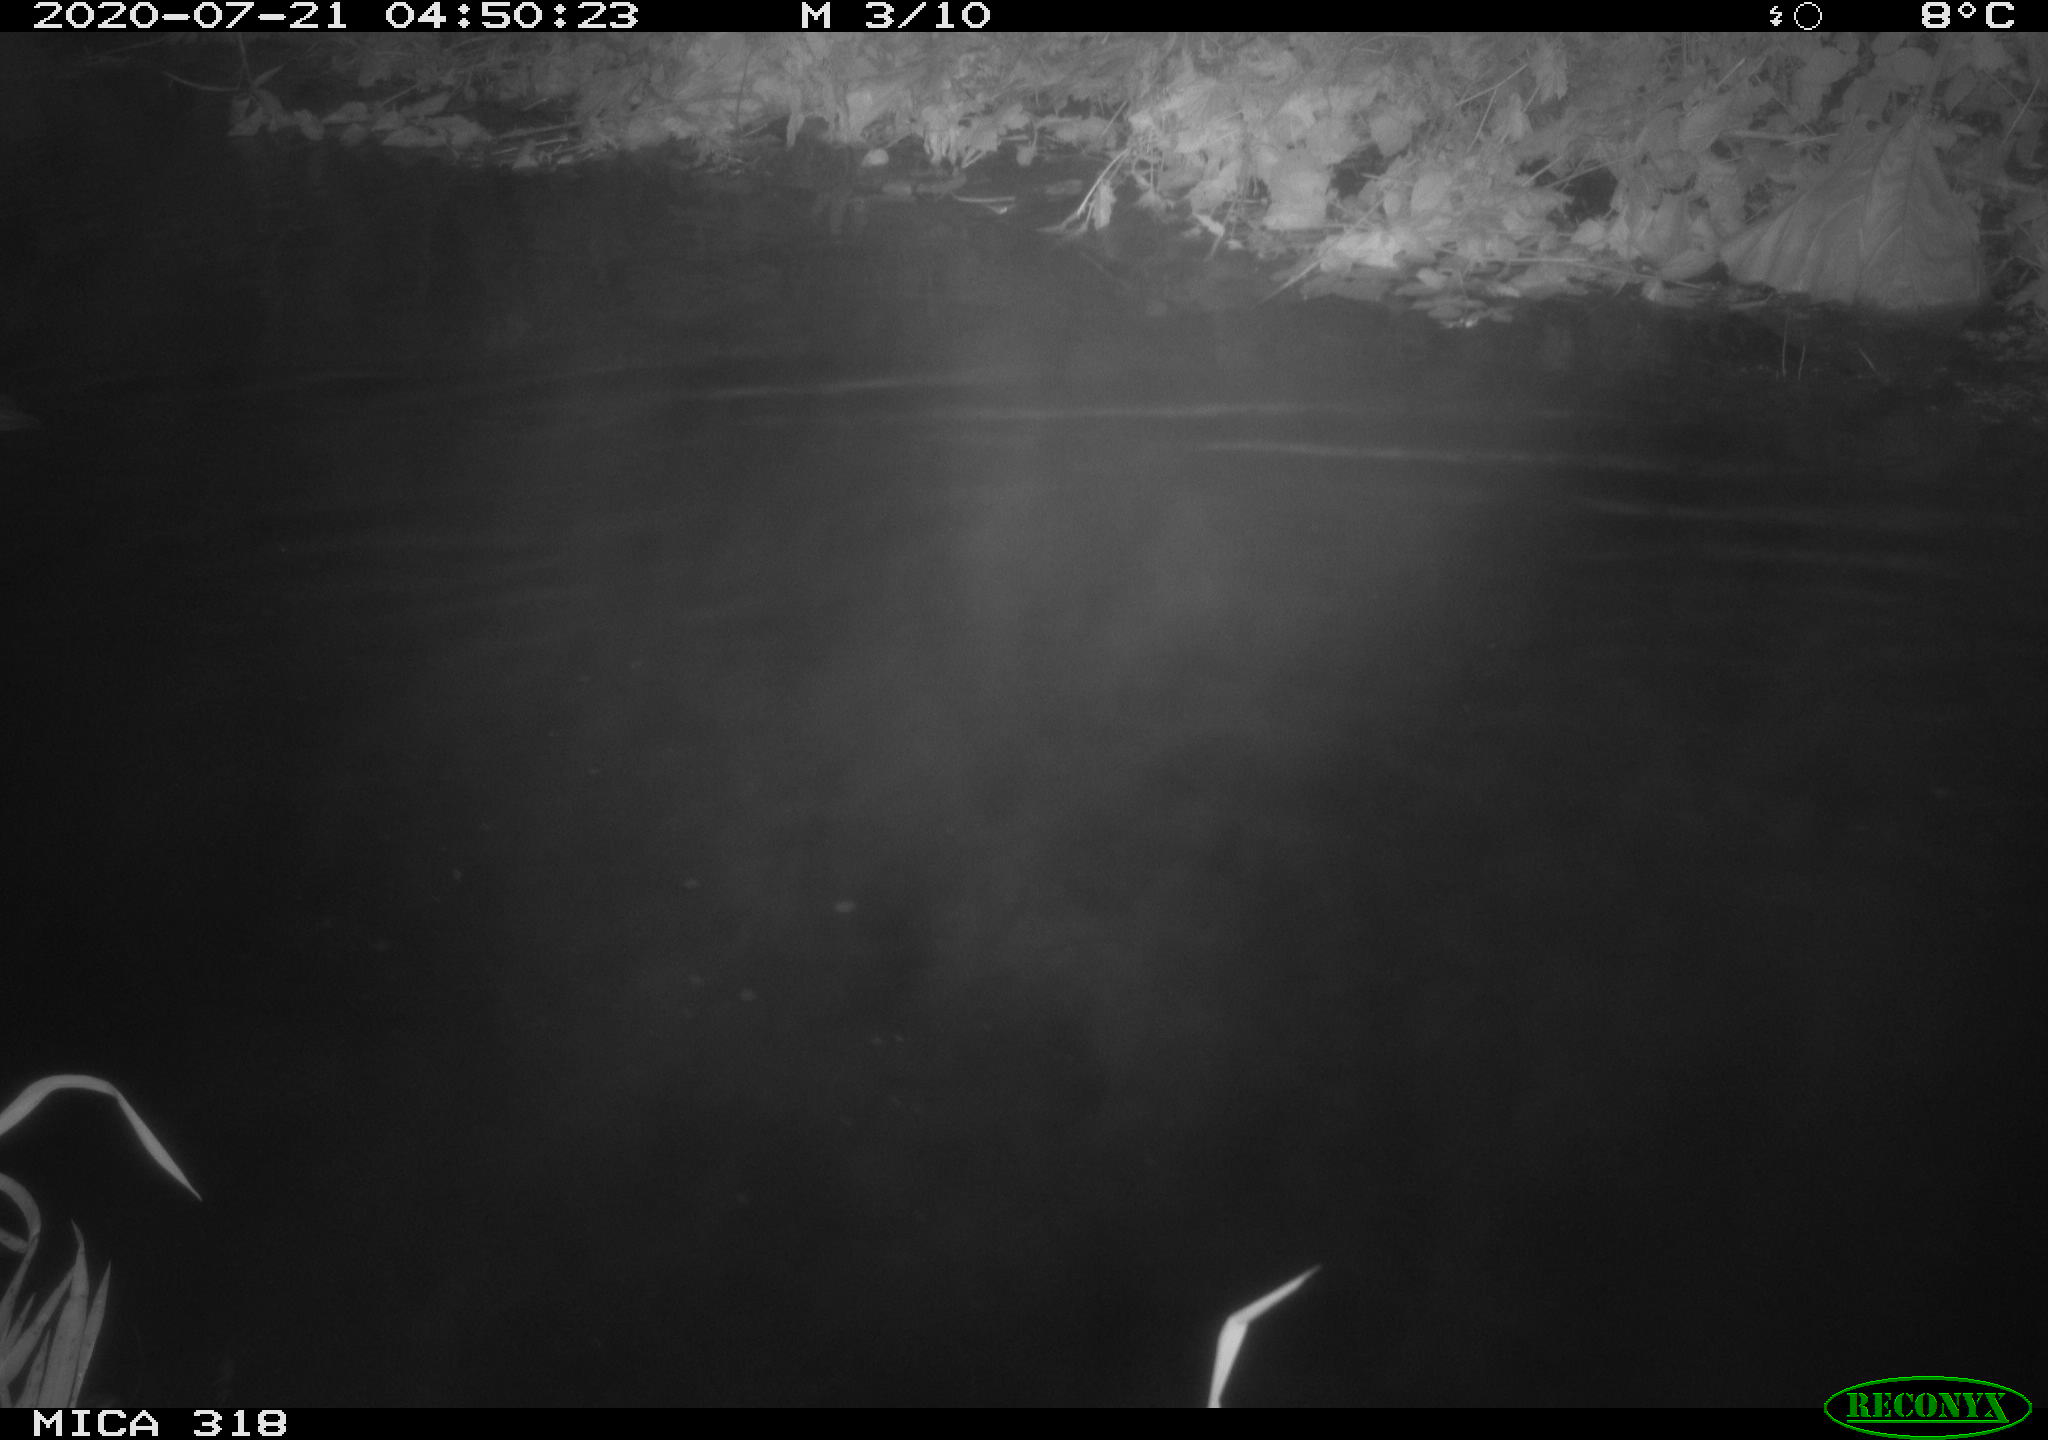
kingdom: Animalia
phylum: Chordata
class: Aves
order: Anseriformes
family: Anatidae
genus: Anas
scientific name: Anas platyrhynchos
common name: Mallard
